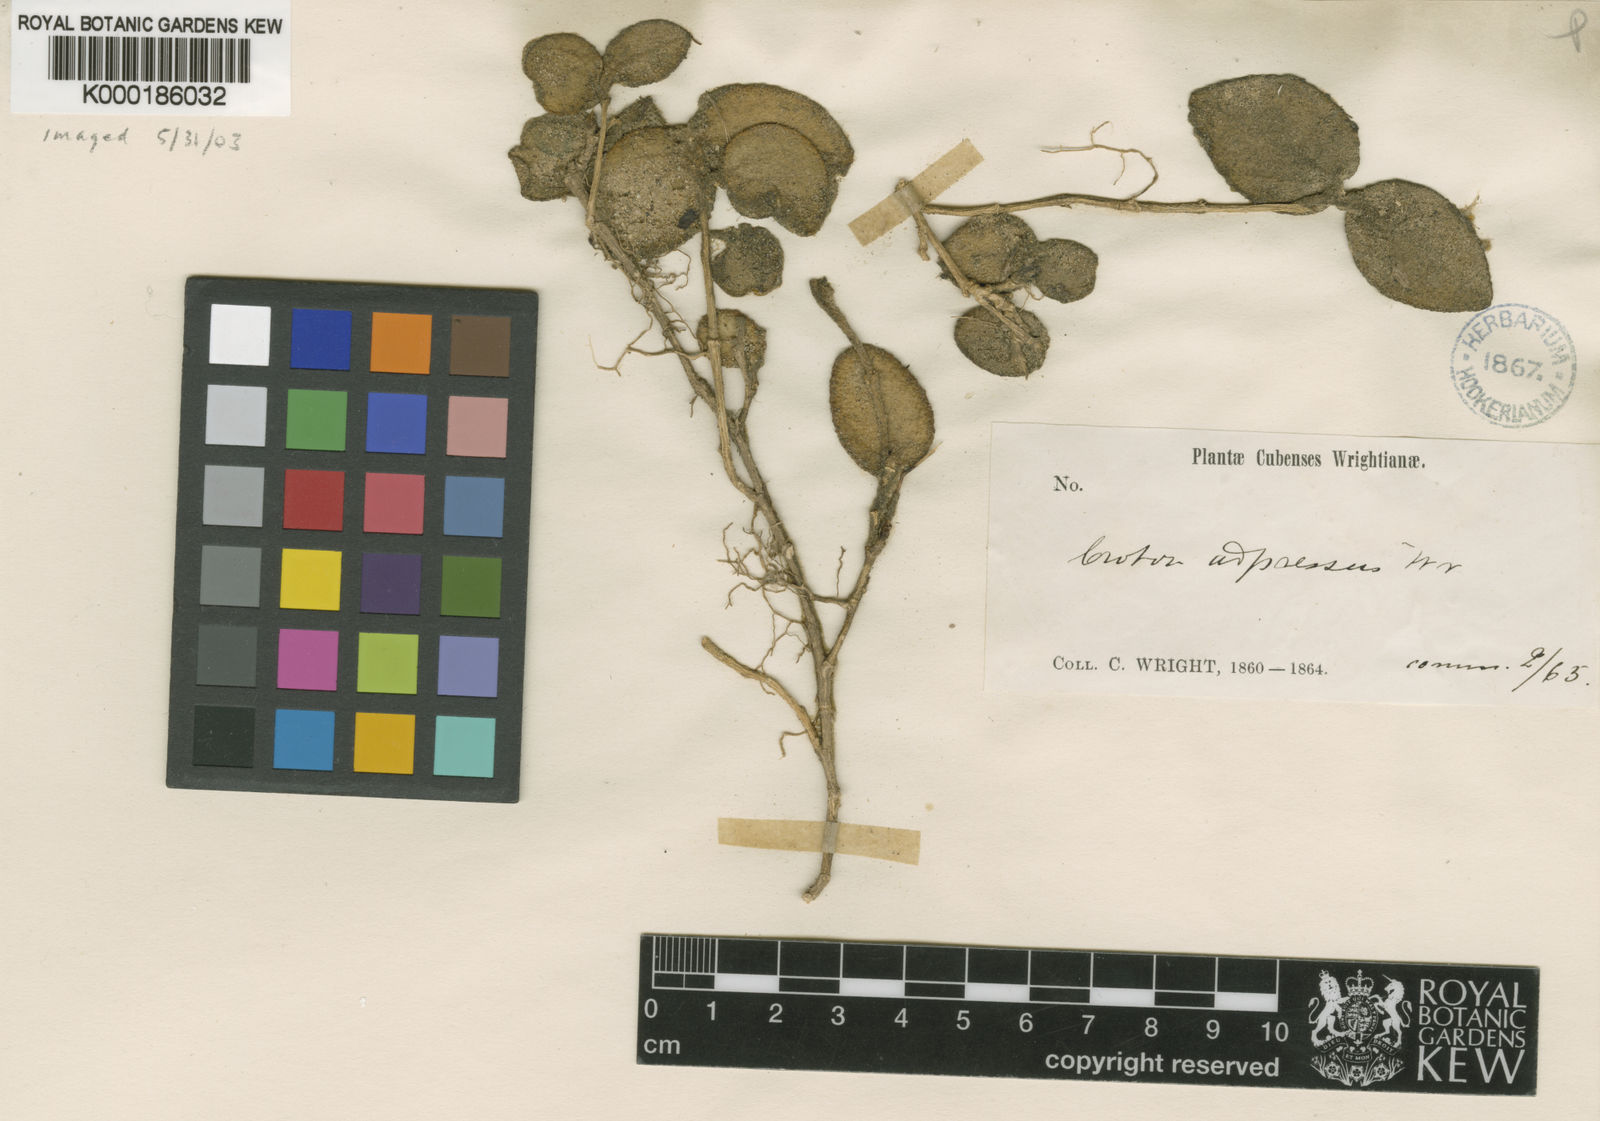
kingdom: Plantae
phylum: Tracheophyta
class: Magnoliopsida
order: Malpighiales
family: Euphorbiaceae
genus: Croton
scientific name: Croton craspedotrichus
